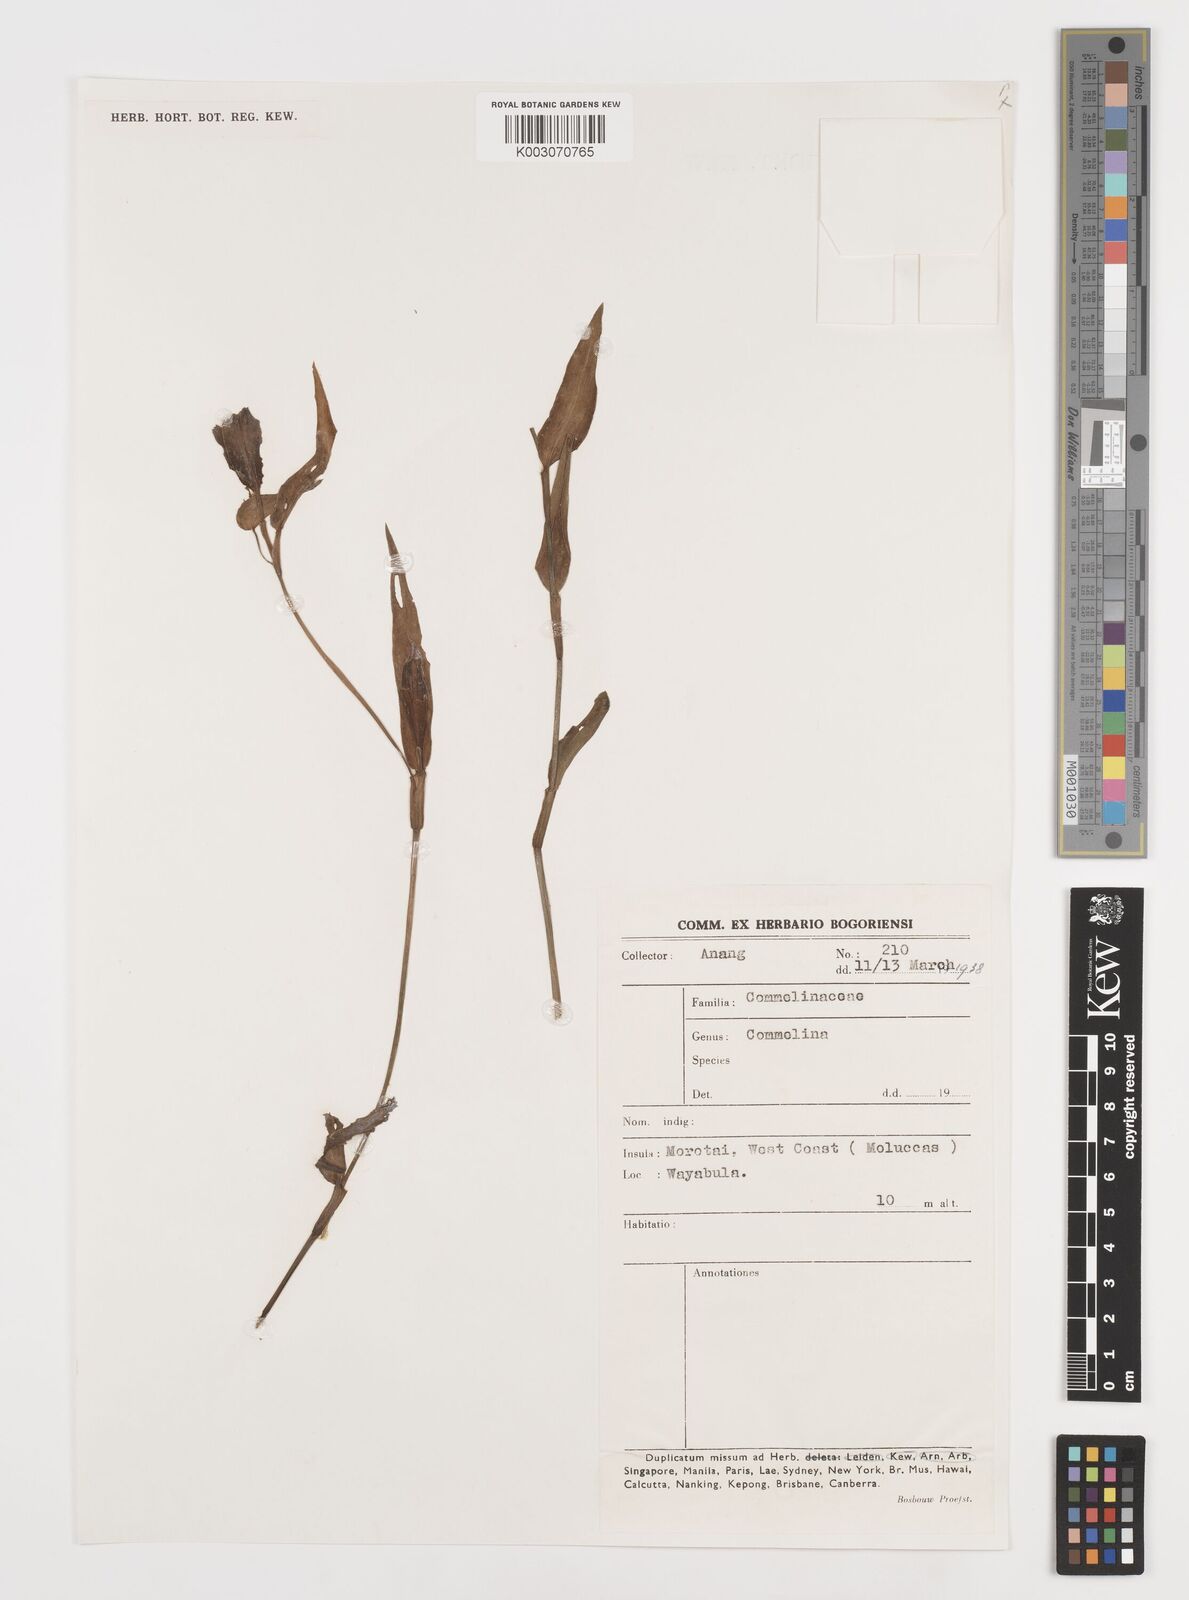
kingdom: Plantae
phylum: Tracheophyta
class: Liliopsida
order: Commelinales
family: Commelinaceae
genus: Commelina
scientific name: Commelina
